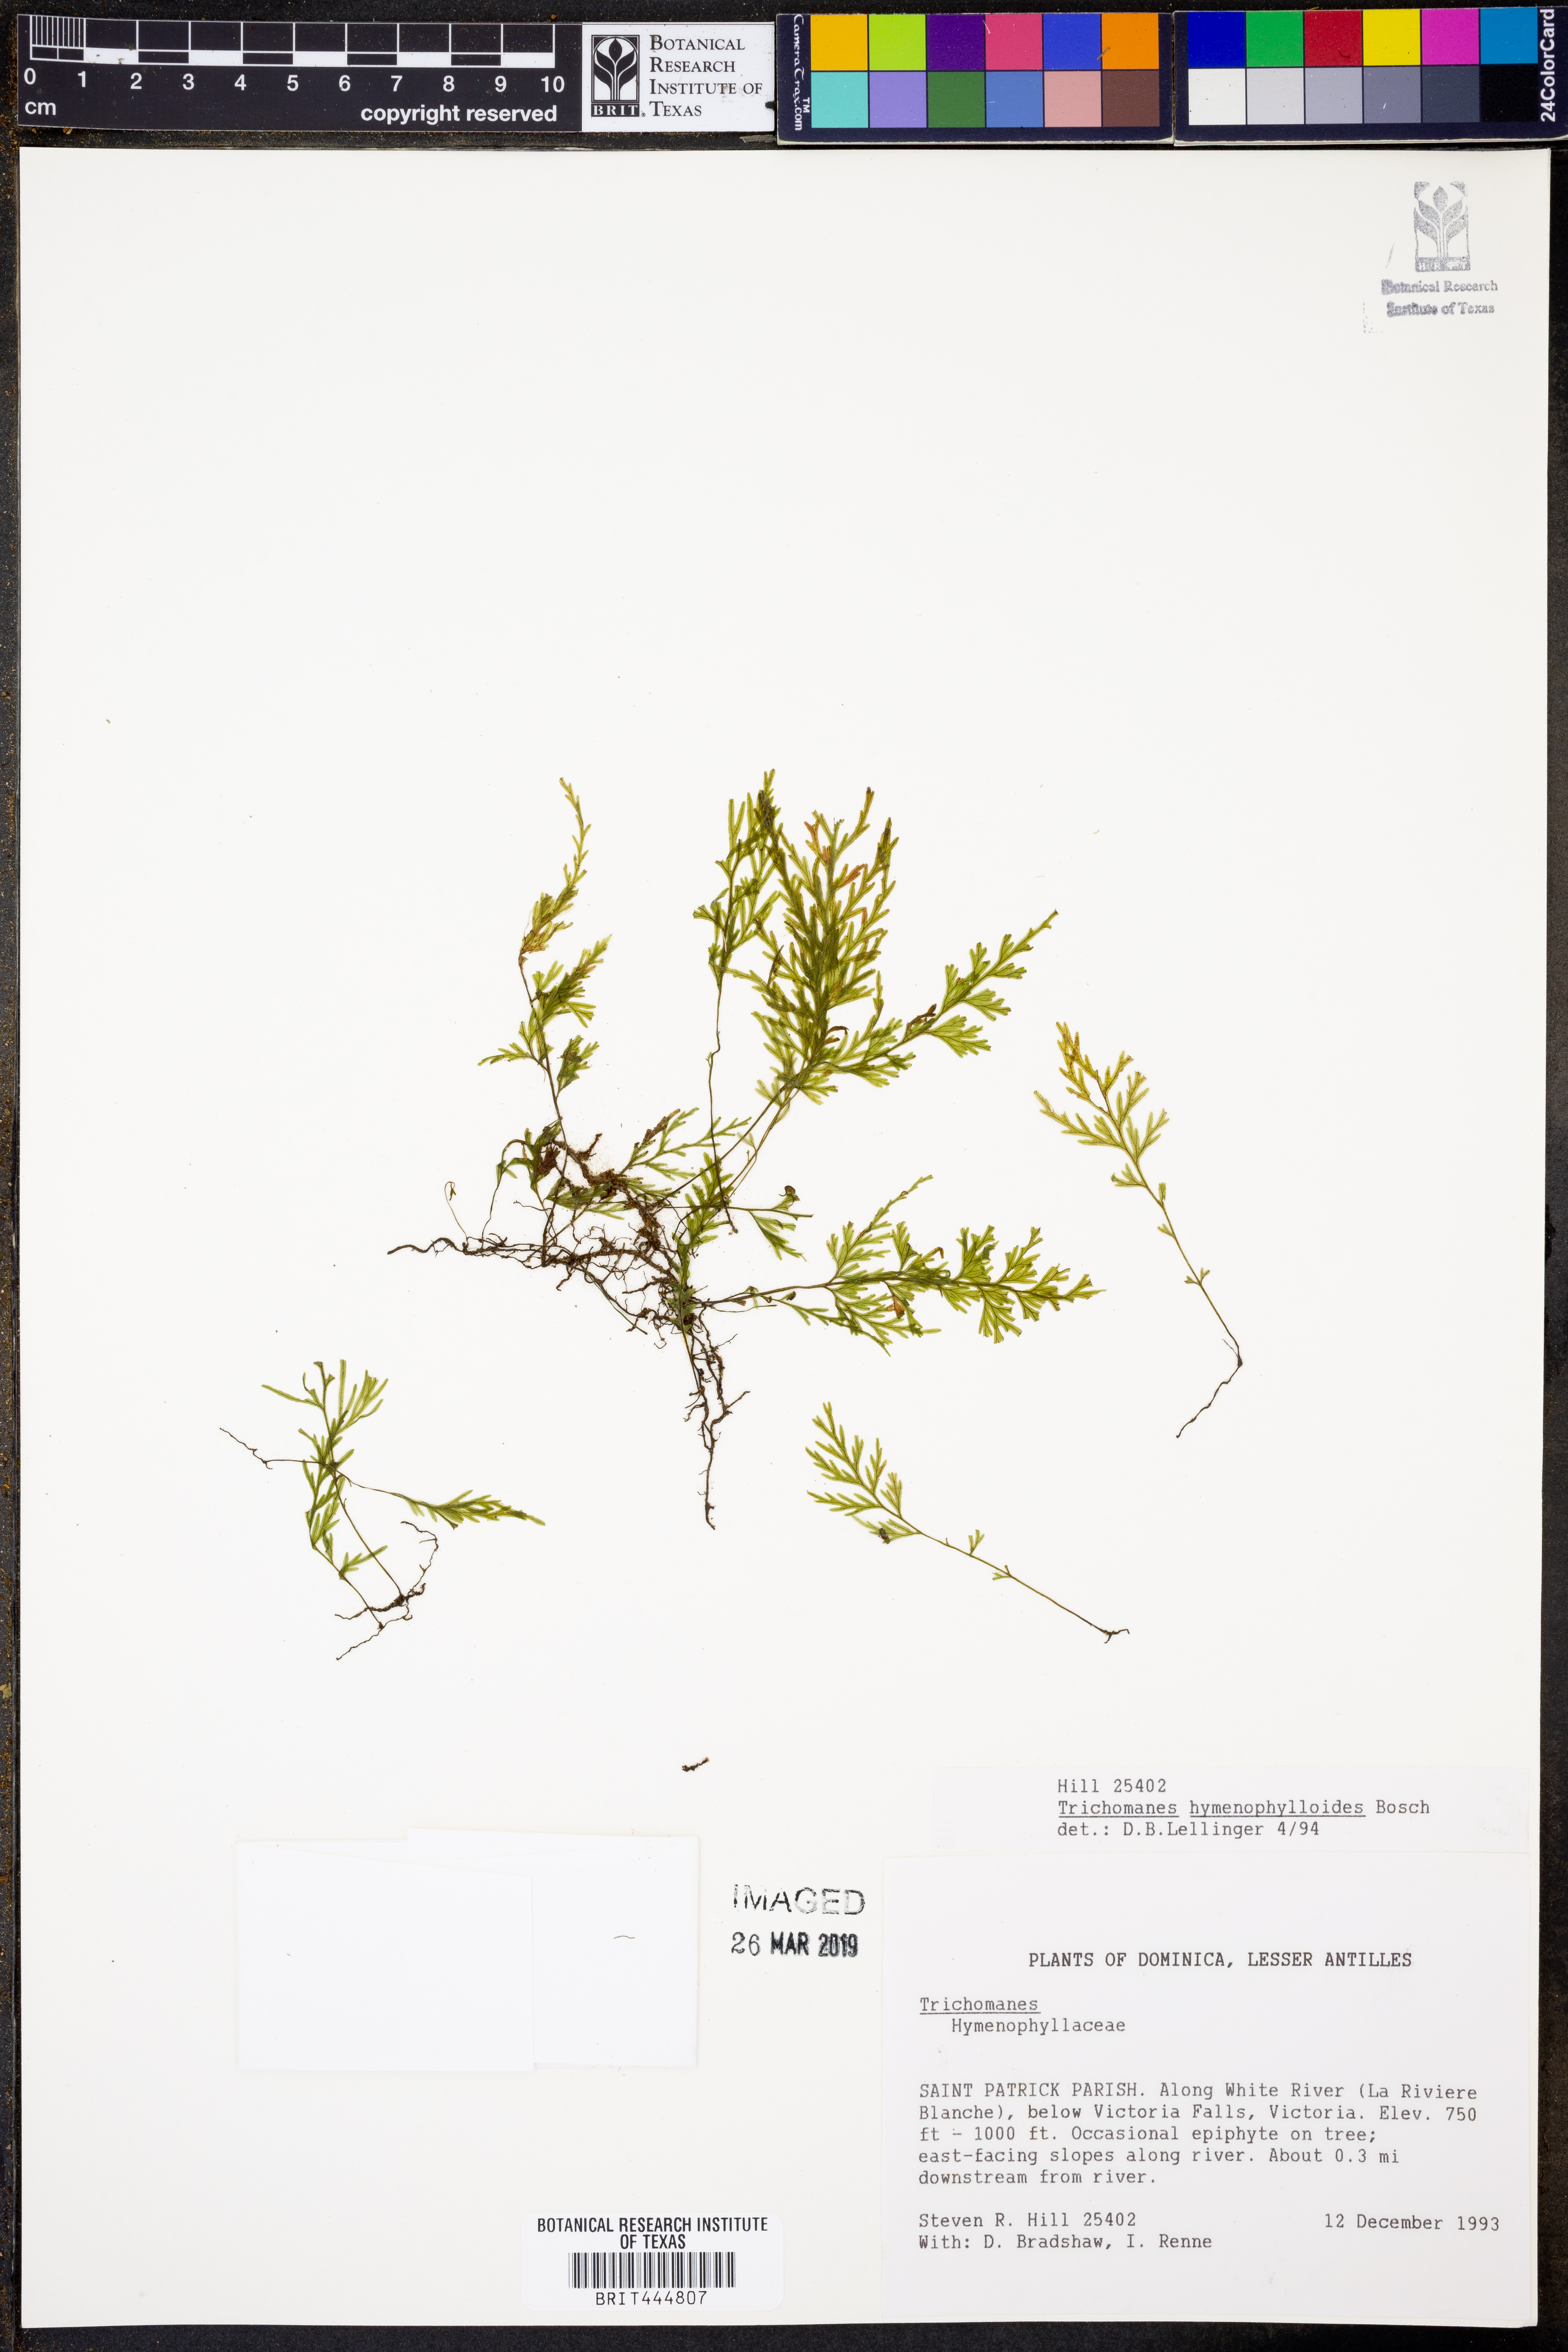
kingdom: Plantae
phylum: Tracheophyta
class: Polypodiopsida
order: Hymenophyllales
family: Hymenophyllaceae
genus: Polyphlebium
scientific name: Polyphlebium hymenophylloides
